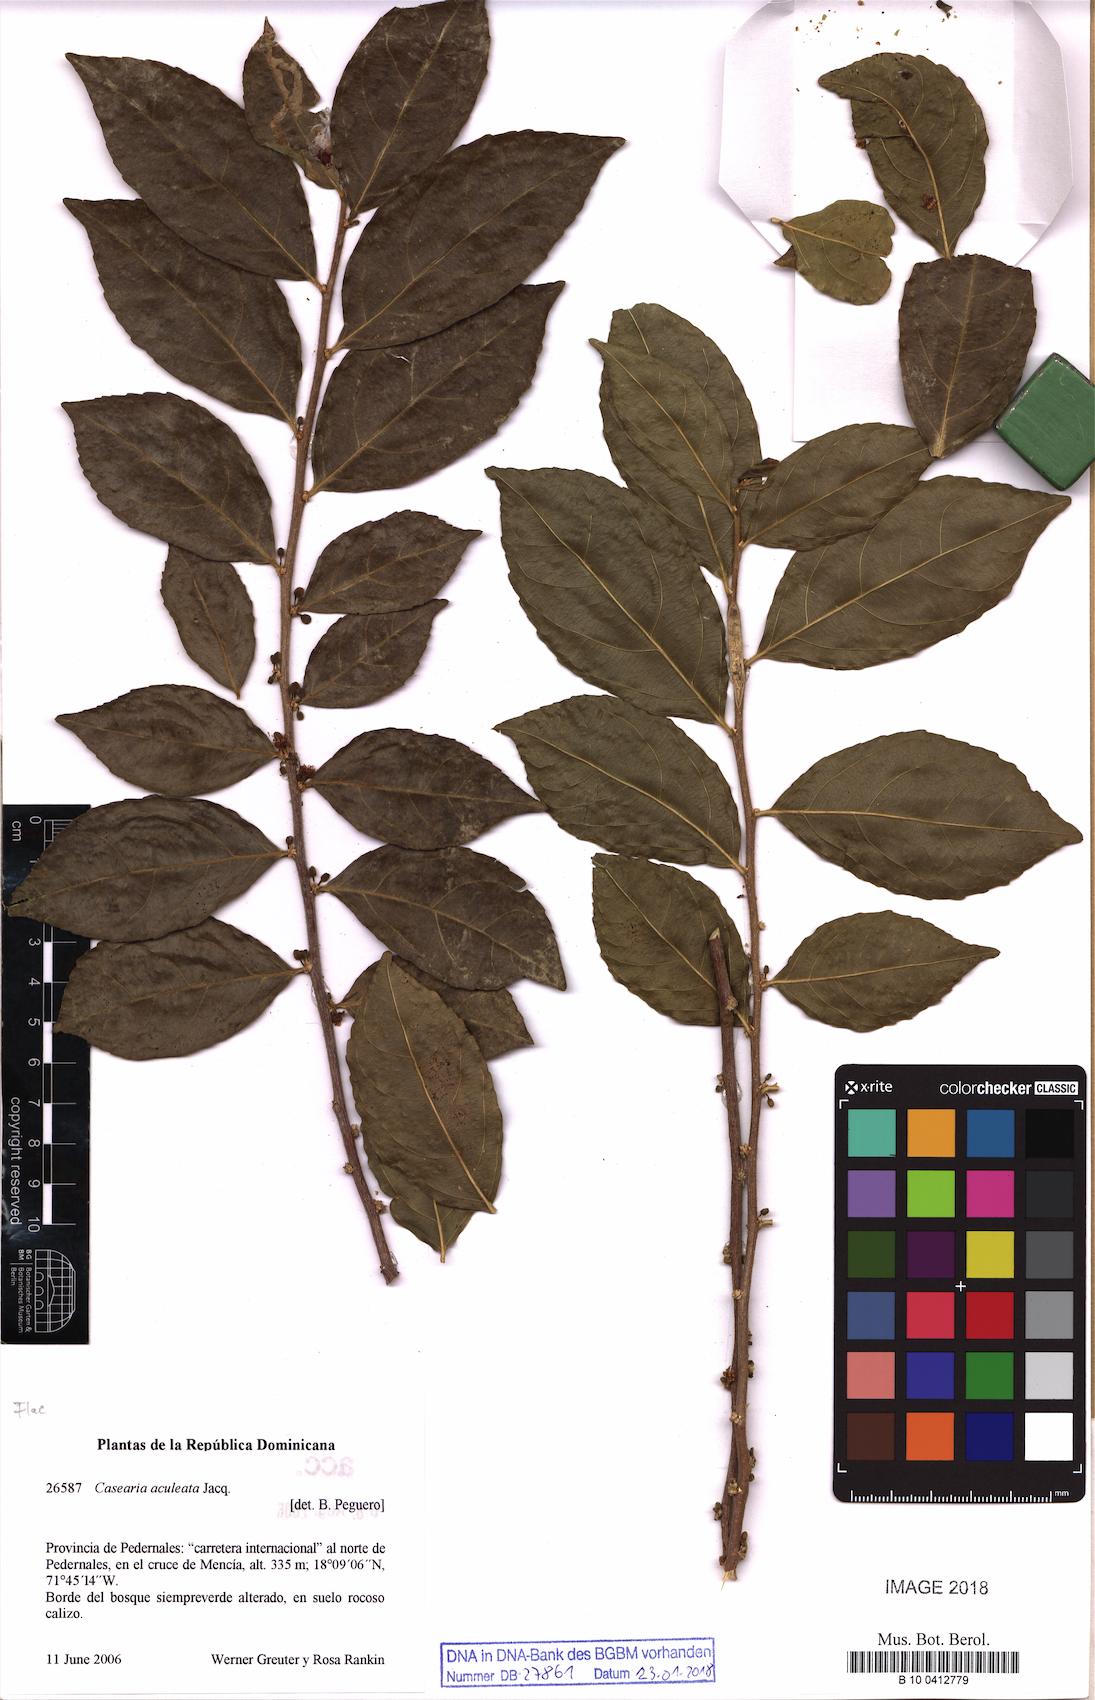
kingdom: Plantae
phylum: Tracheophyta
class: Magnoliopsida
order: Malpighiales
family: Salicaceae
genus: Casearia
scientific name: Casearia aculeata
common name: Cockspur
